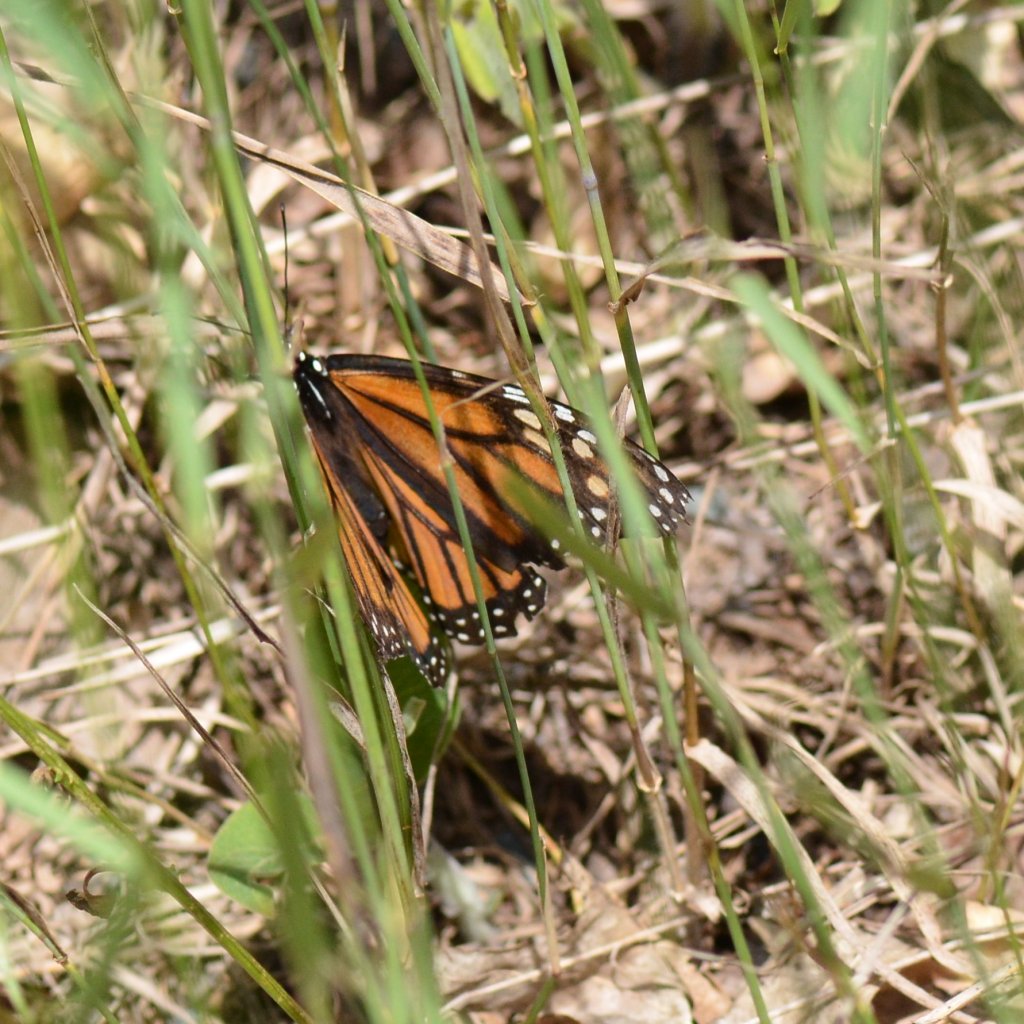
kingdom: Animalia
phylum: Arthropoda
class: Insecta
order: Lepidoptera
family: Nymphalidae
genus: Danaus
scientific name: Danaus plexippus
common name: Monarch
